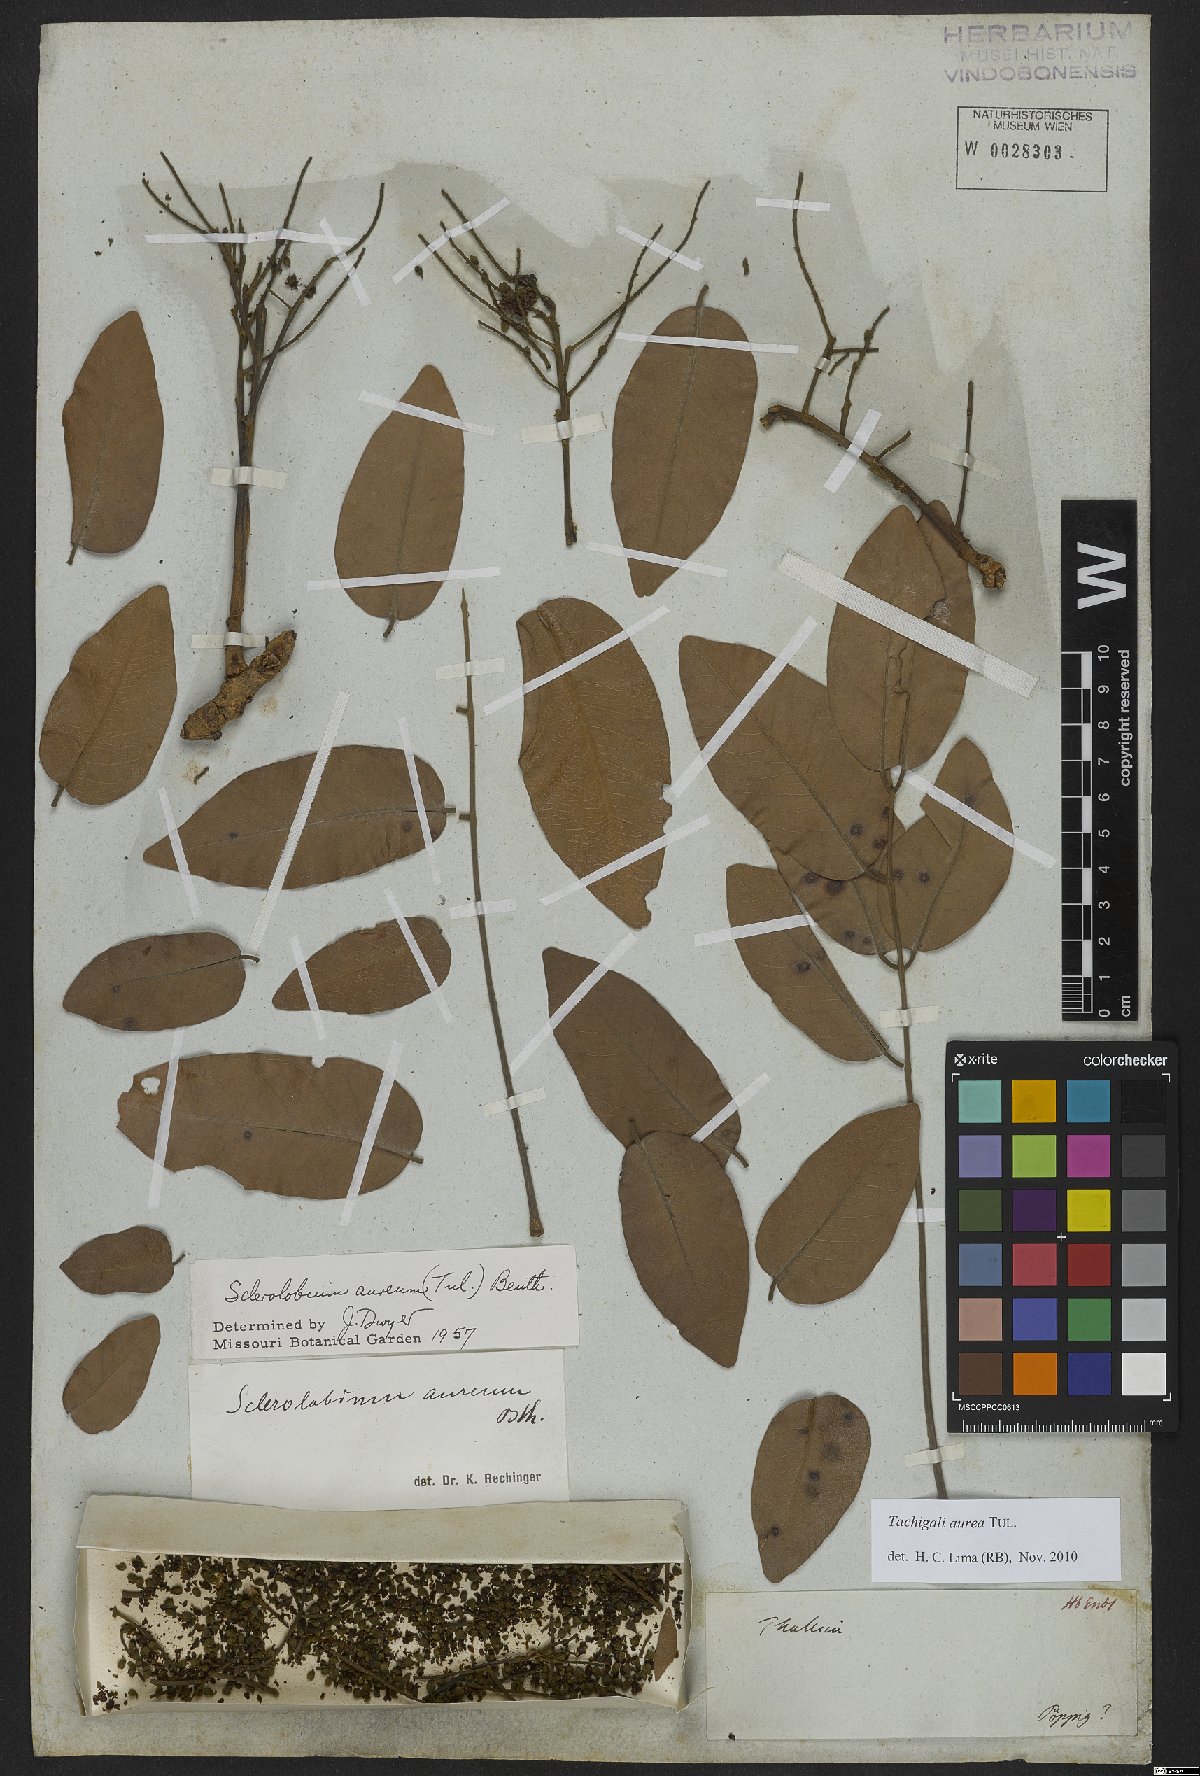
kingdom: Plantae
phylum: Tracheophyta
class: Magnoliopsida
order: Fabales
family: Fabaceae
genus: Tachigali
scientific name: Tachigali aurea
